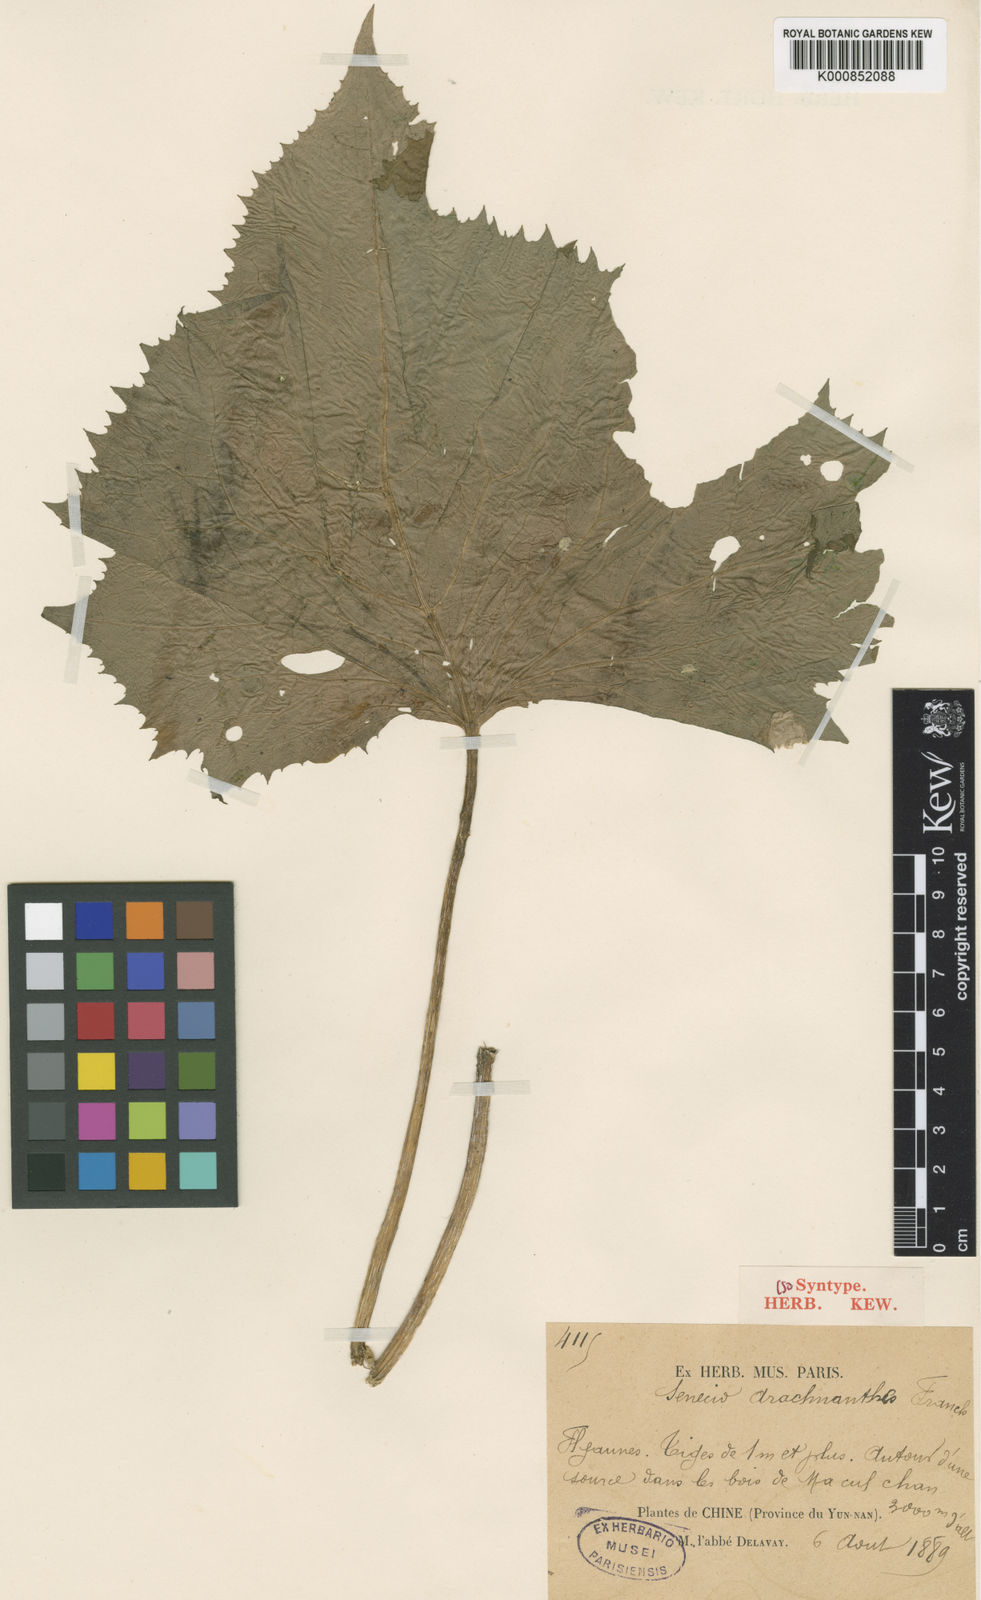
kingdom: Plantae
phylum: Tracheophyta
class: Magnoliopsida
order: Asterales
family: Asteraceae
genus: Senecio
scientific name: Senecio arachnanthus
